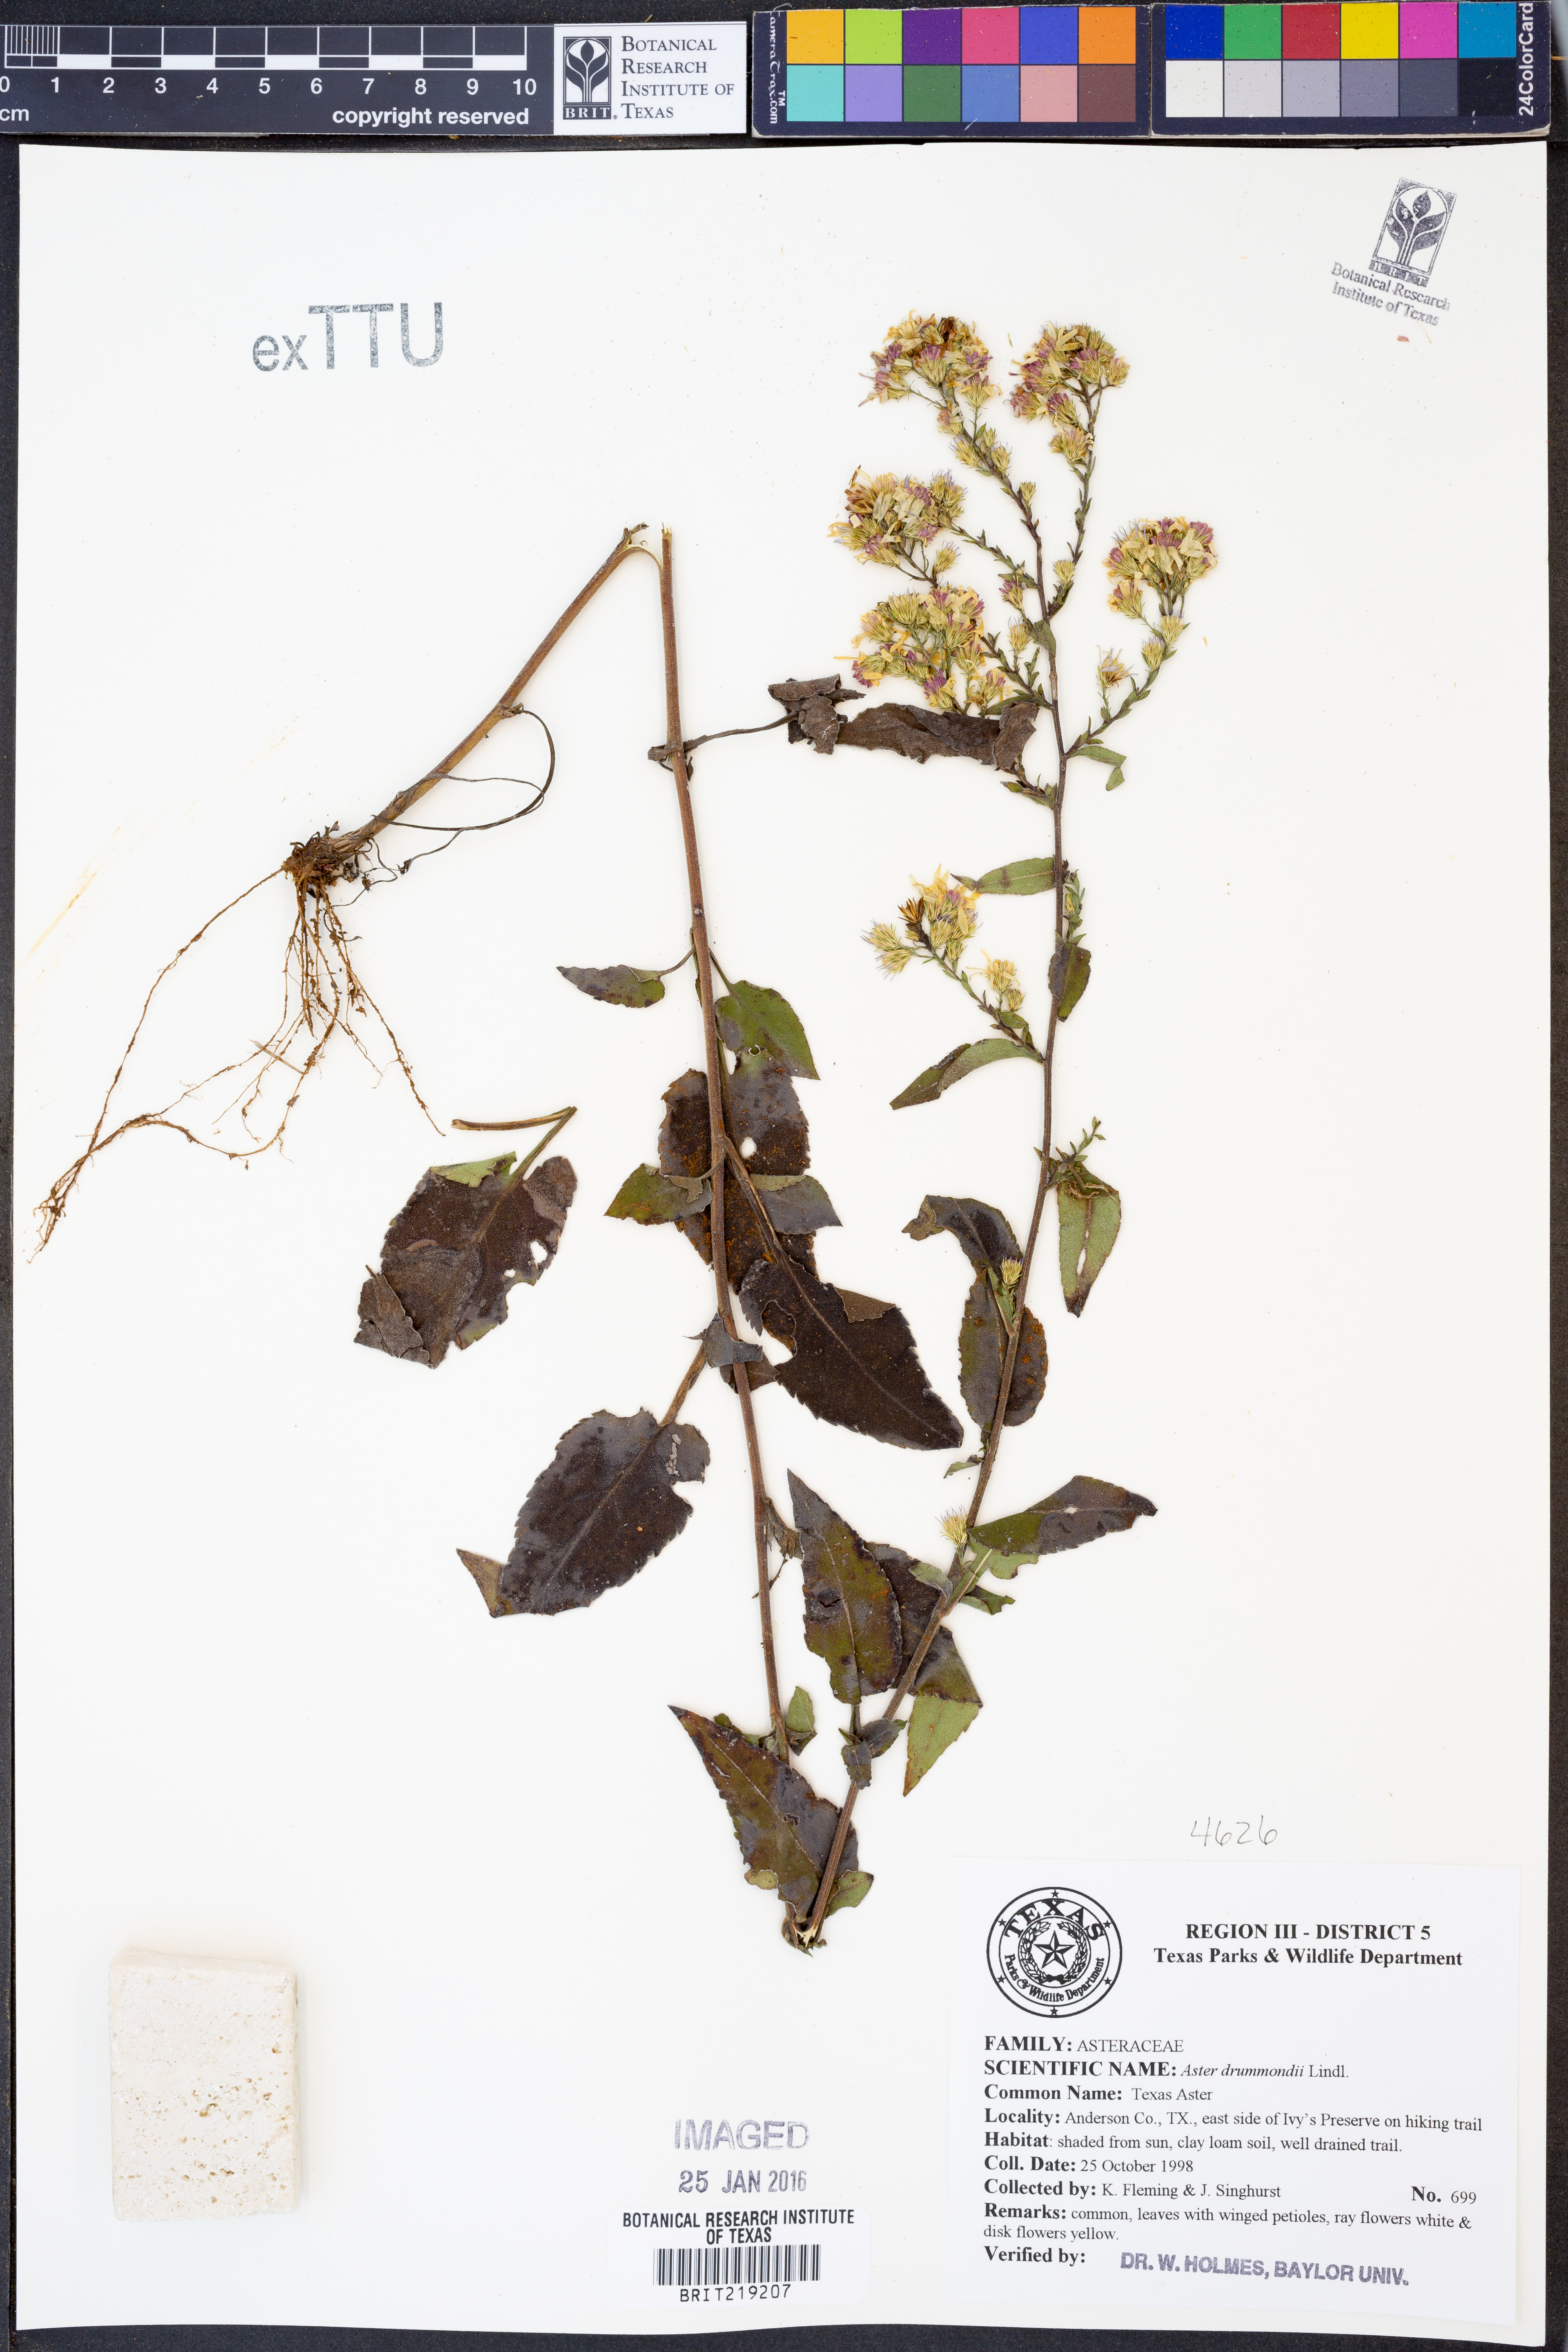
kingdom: Plantae
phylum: Tracheophyta
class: Magnoliopsida
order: Asterales
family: Asteraceae
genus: Symphyotrichum
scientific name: Symphyotrichum drummondii
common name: Drummond's aster
